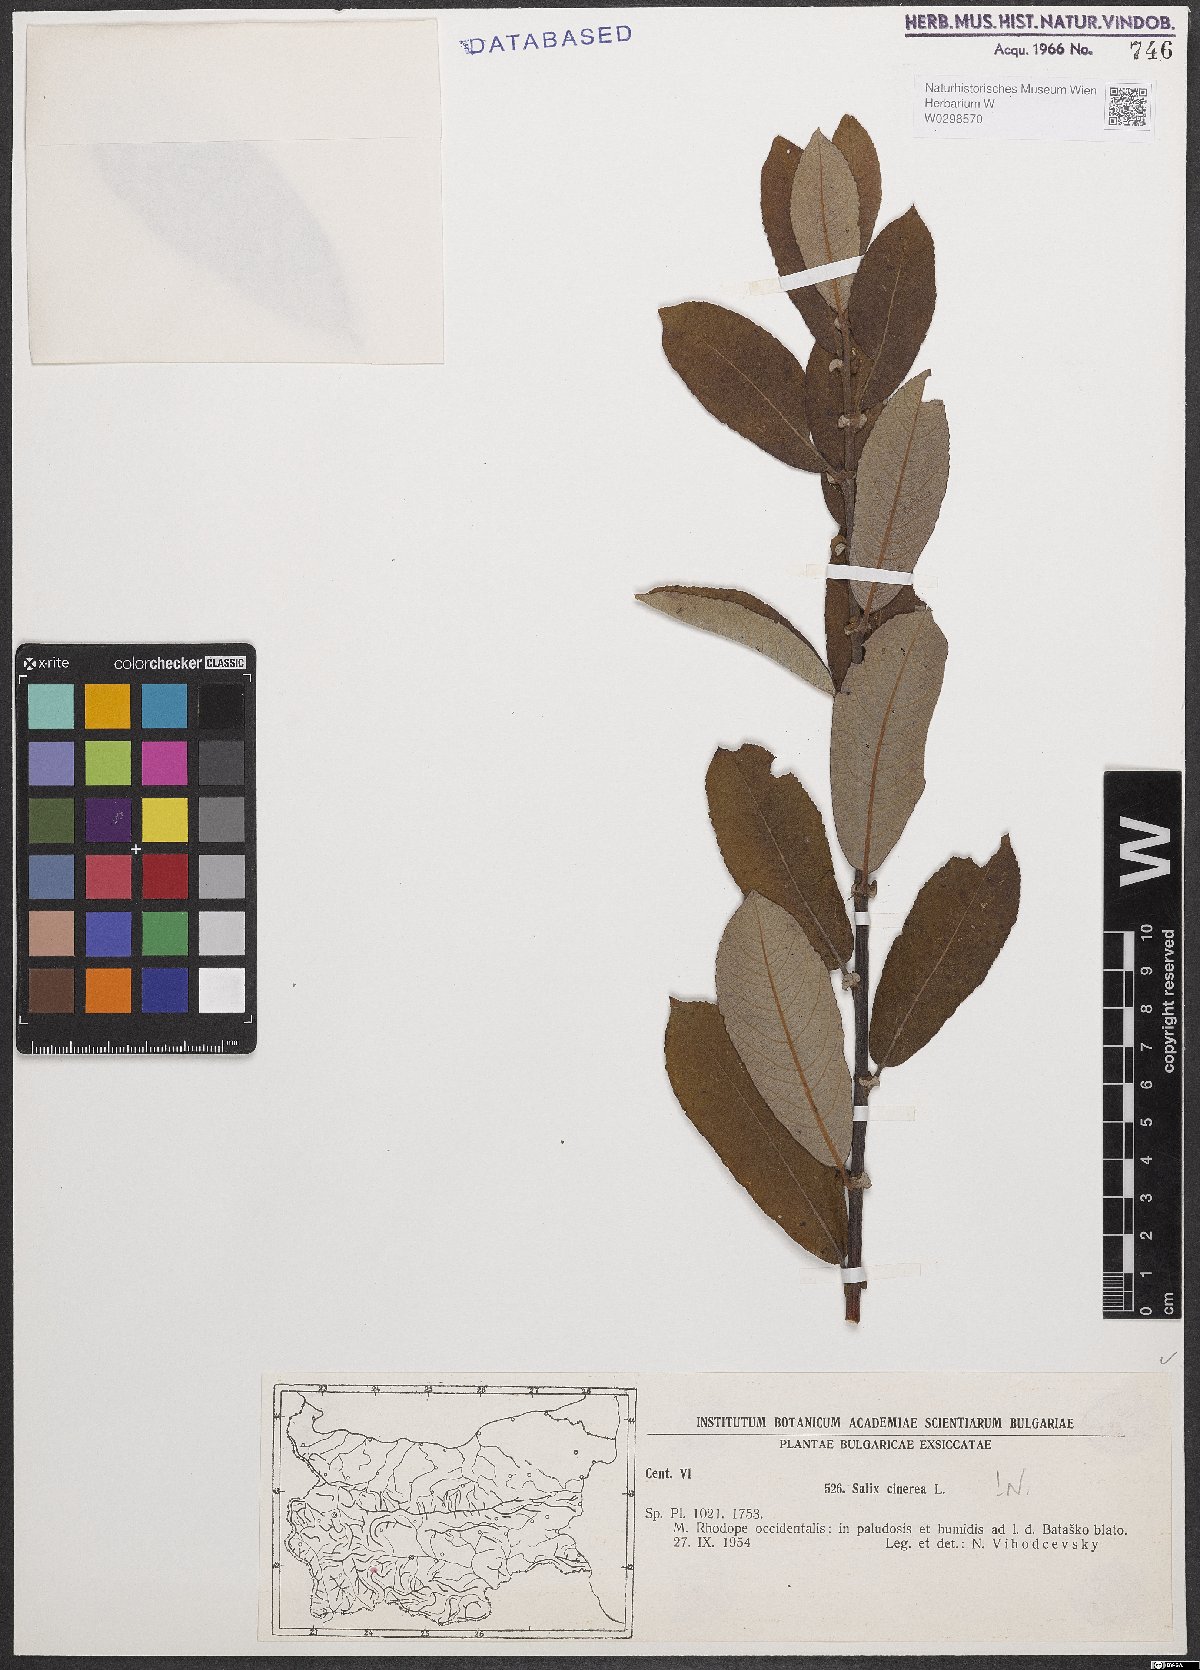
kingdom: Plantae
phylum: Tracheophyta
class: Magnoliopsida
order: Malpighiales
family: Salicaceae
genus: Salix
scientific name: Salix cinerea
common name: Common sallow
